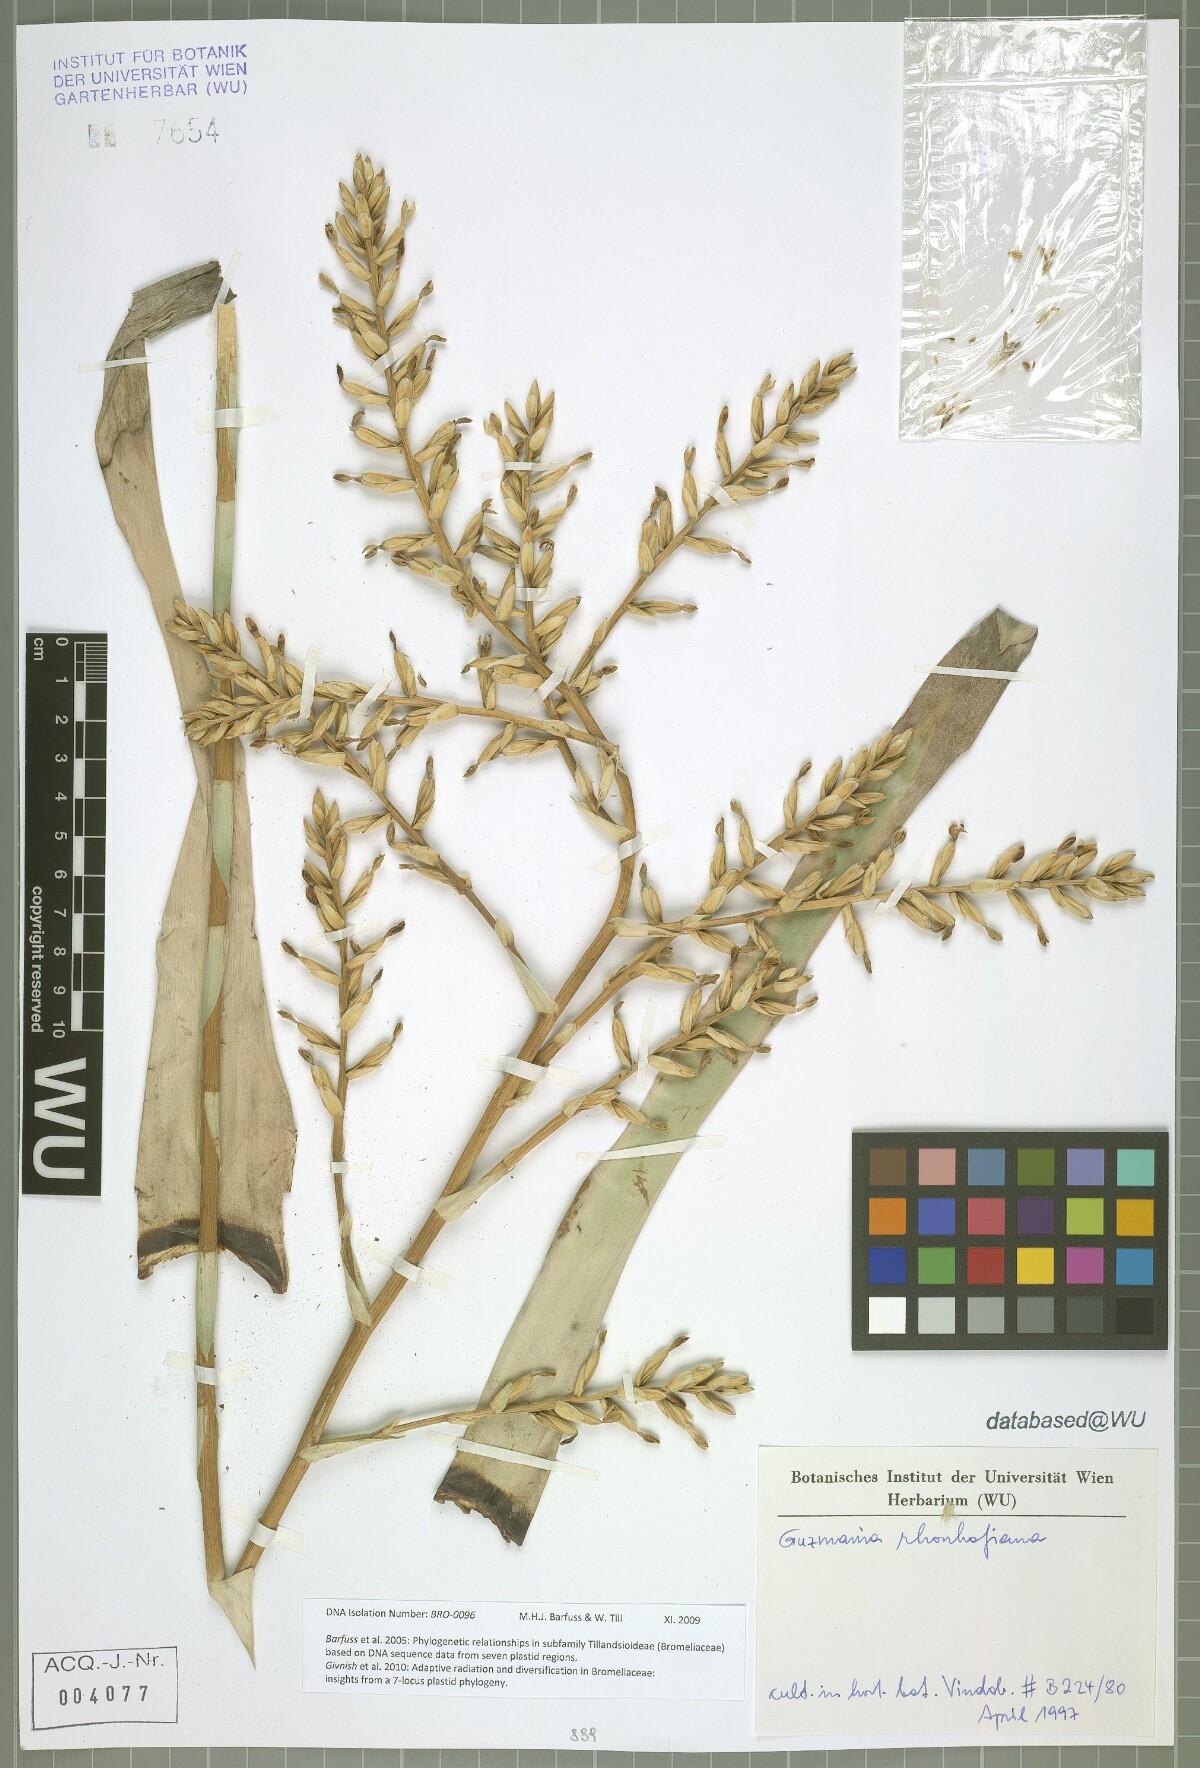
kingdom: Plantae
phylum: Tracheophyta
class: Liliopsida
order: Poales
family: Bromeliaceae
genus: Guzmania
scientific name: Guzmania rhonhofiana
